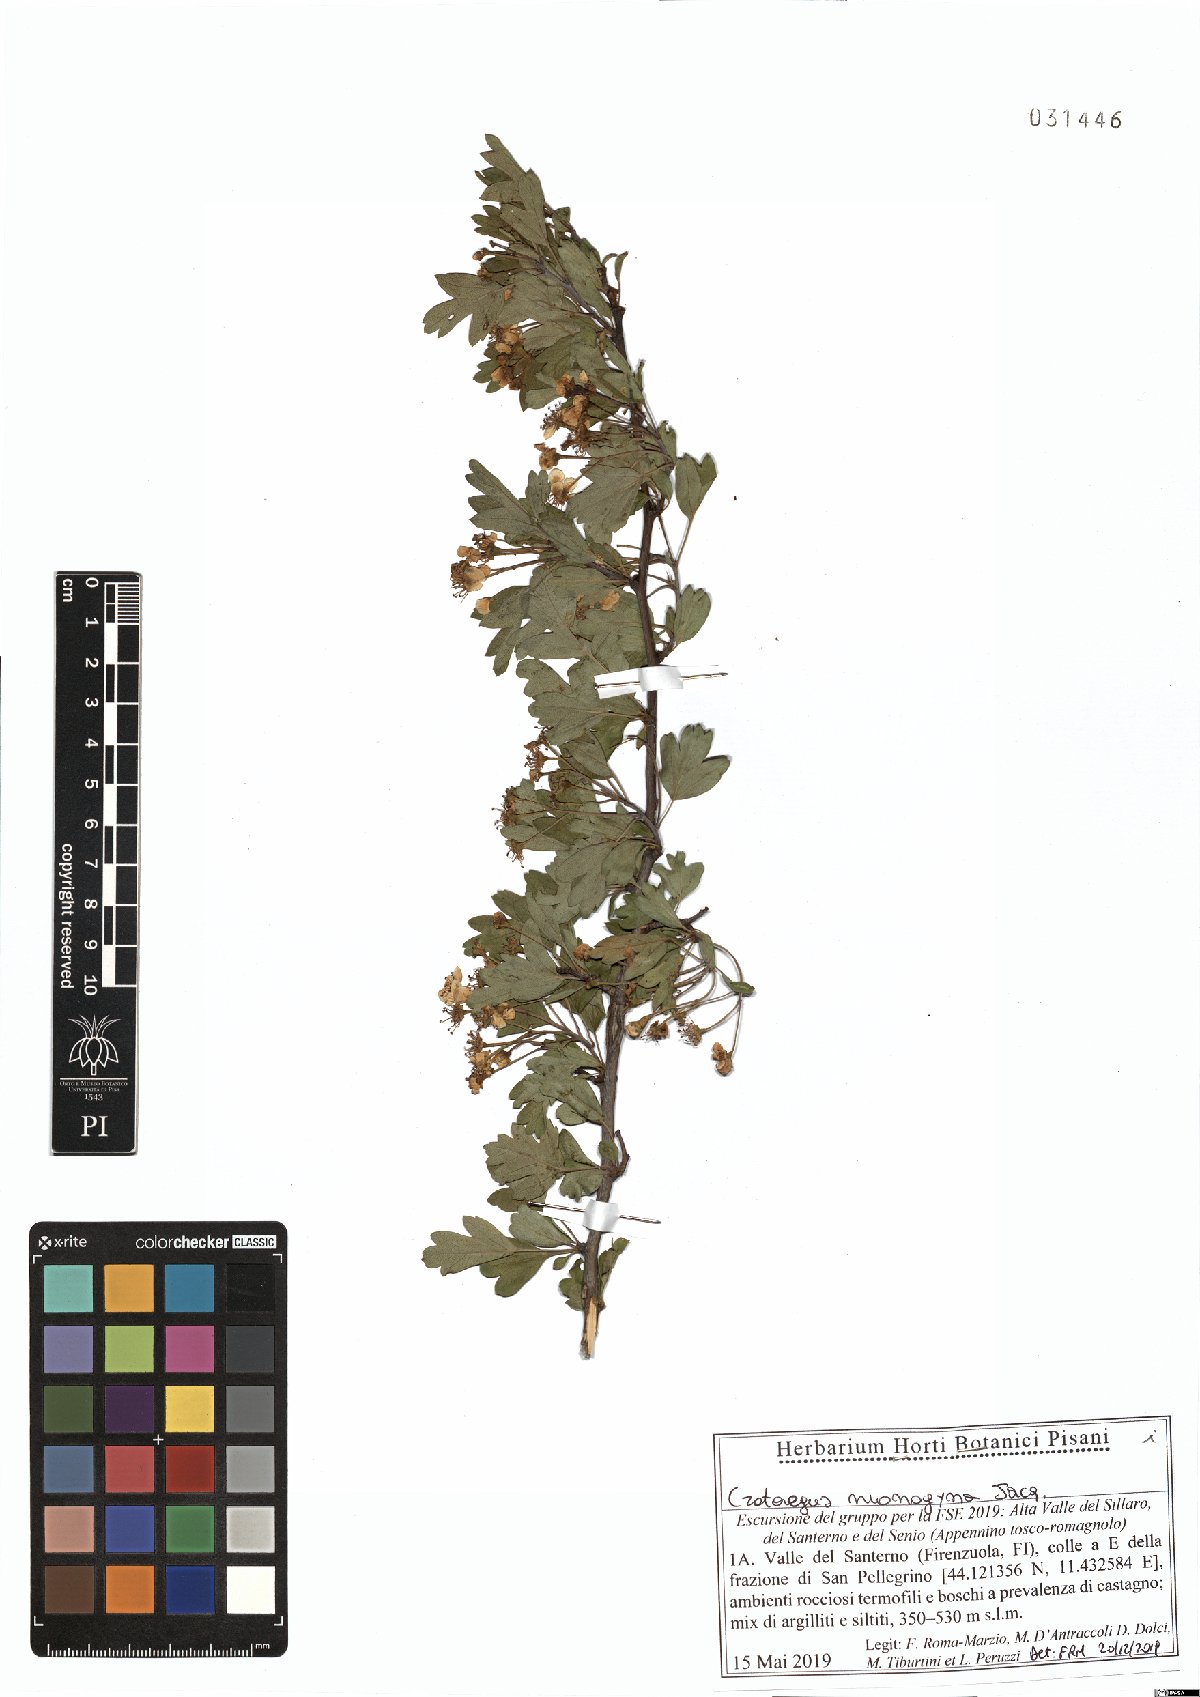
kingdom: Plantae
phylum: Tracheophyta
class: Magnoliopsida
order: Rosales
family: Rosaceae
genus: Crataegus
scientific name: Crataegus monogyna
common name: Hawthorn
